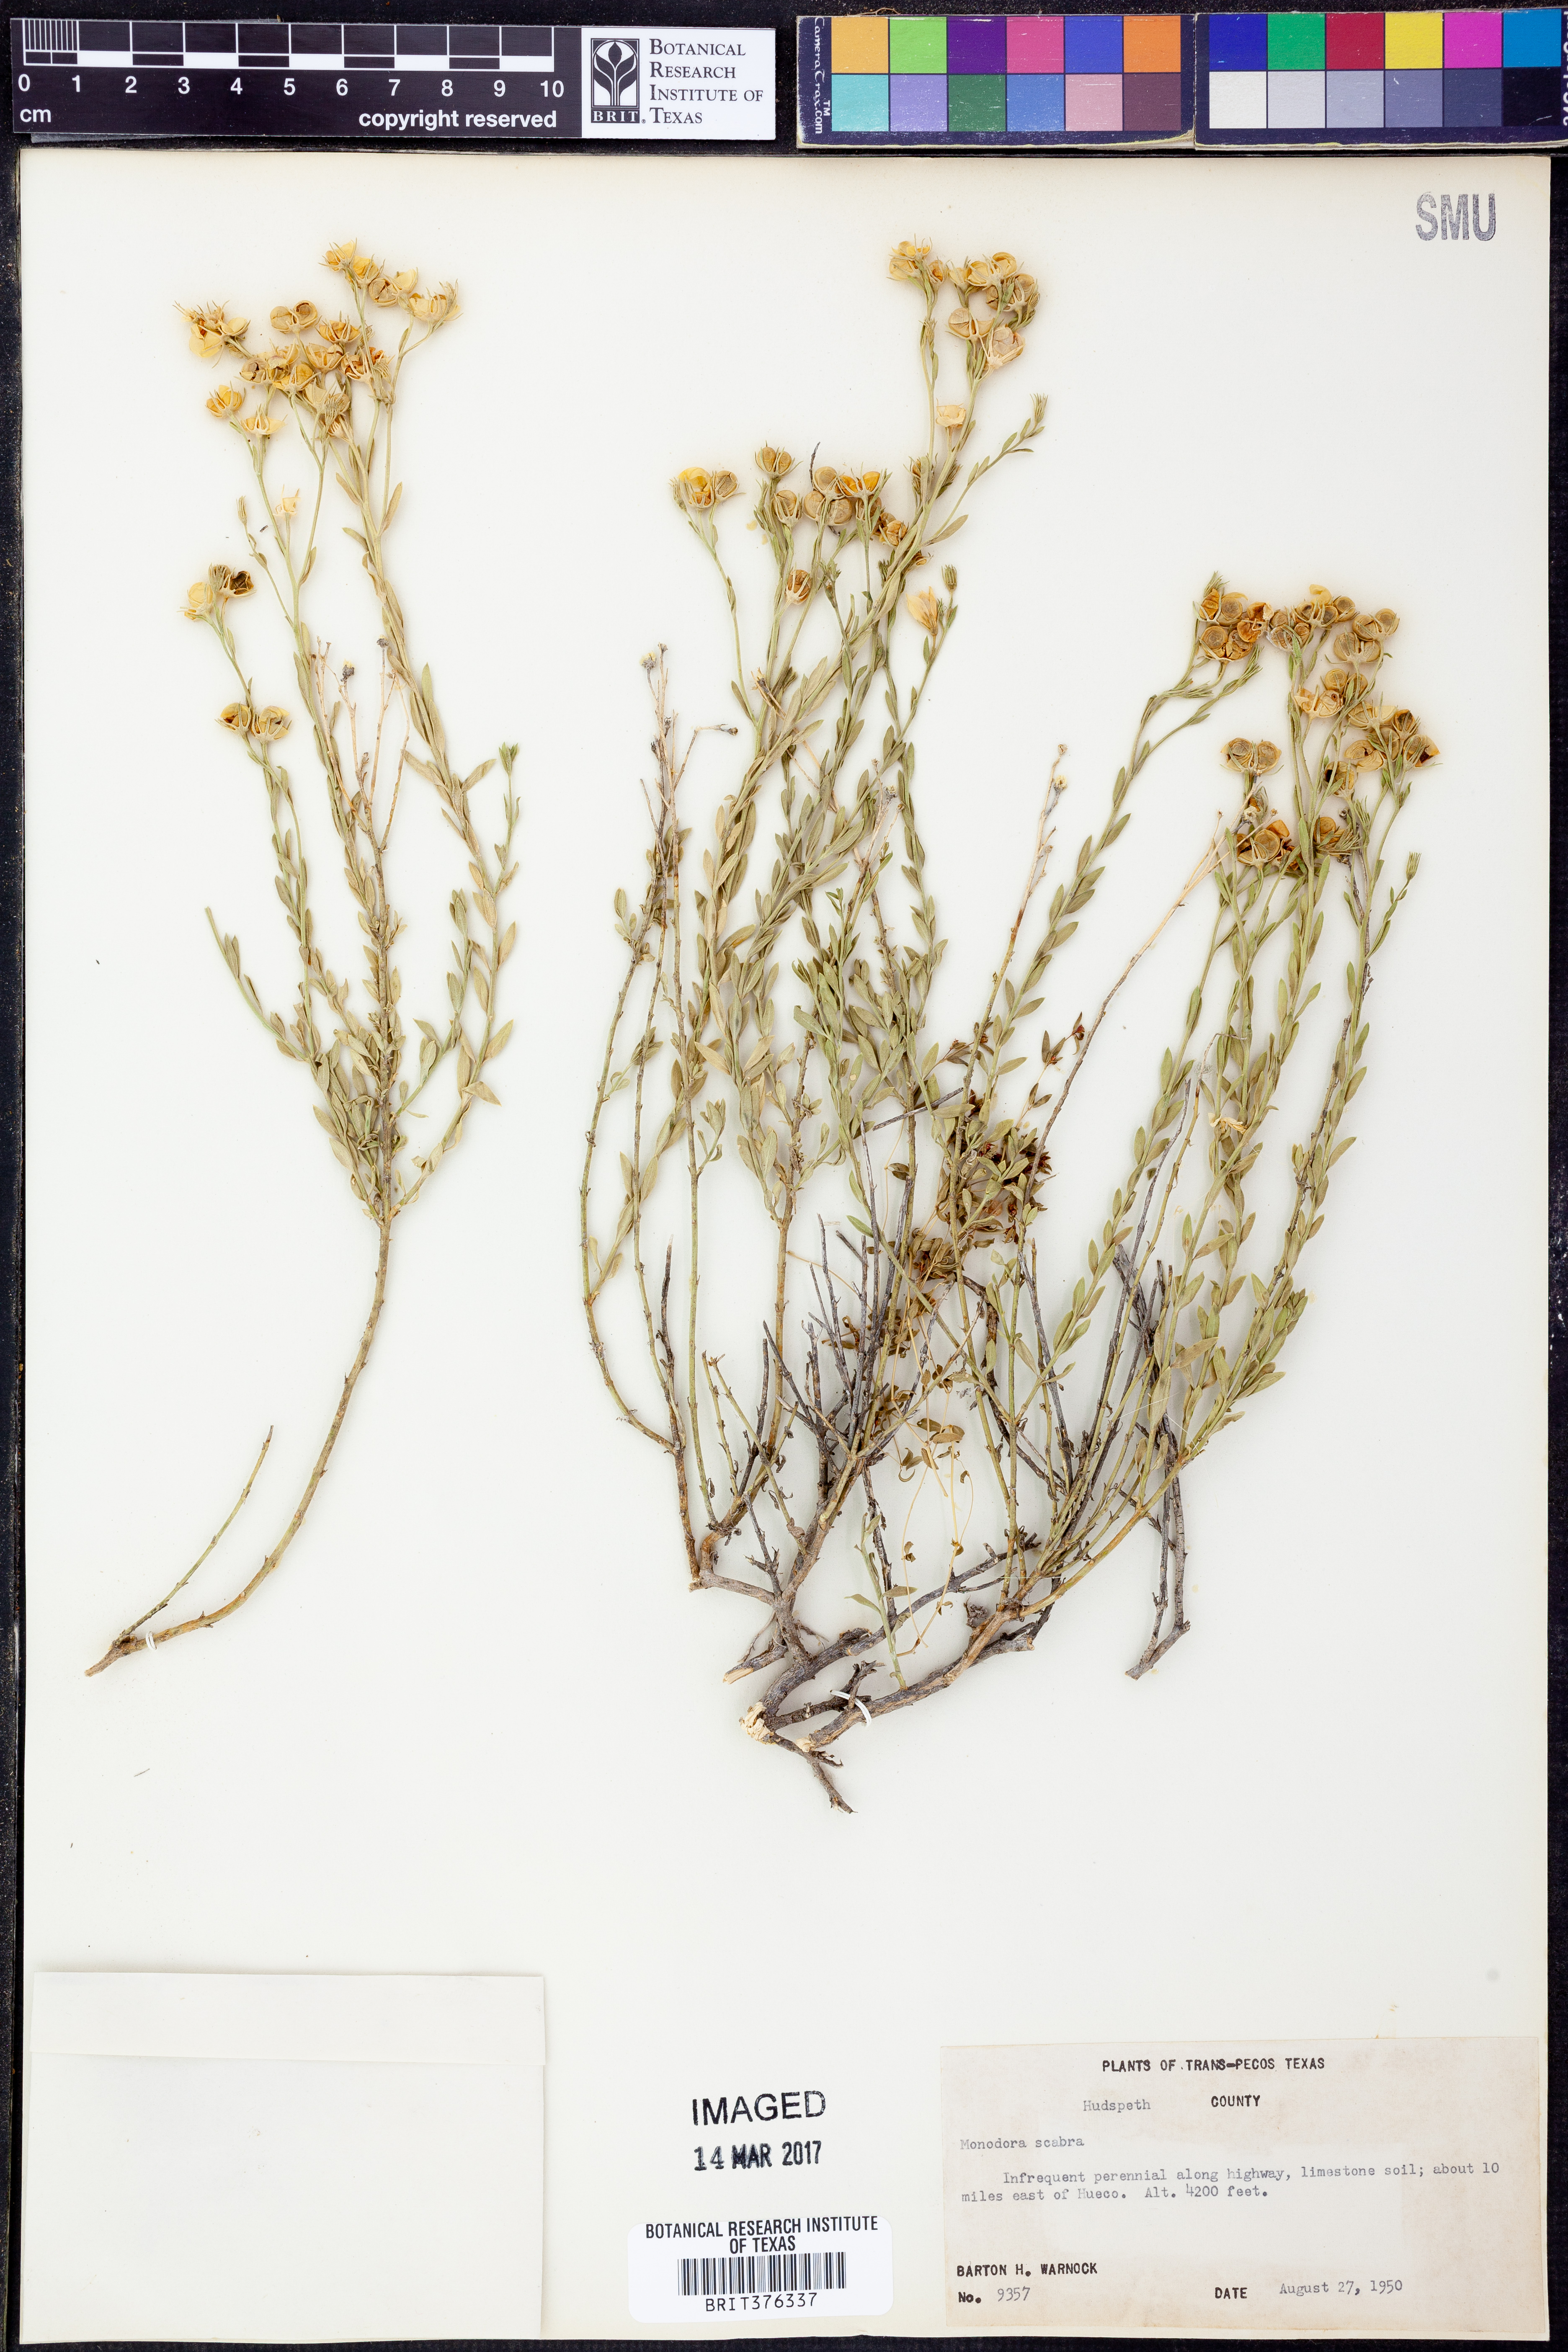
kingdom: Plantae
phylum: Tracheophyta
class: Magnoliopsida
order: Lamiales
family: Oleaceae
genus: Menodora
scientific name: Menodora scabra
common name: Rough menodora
